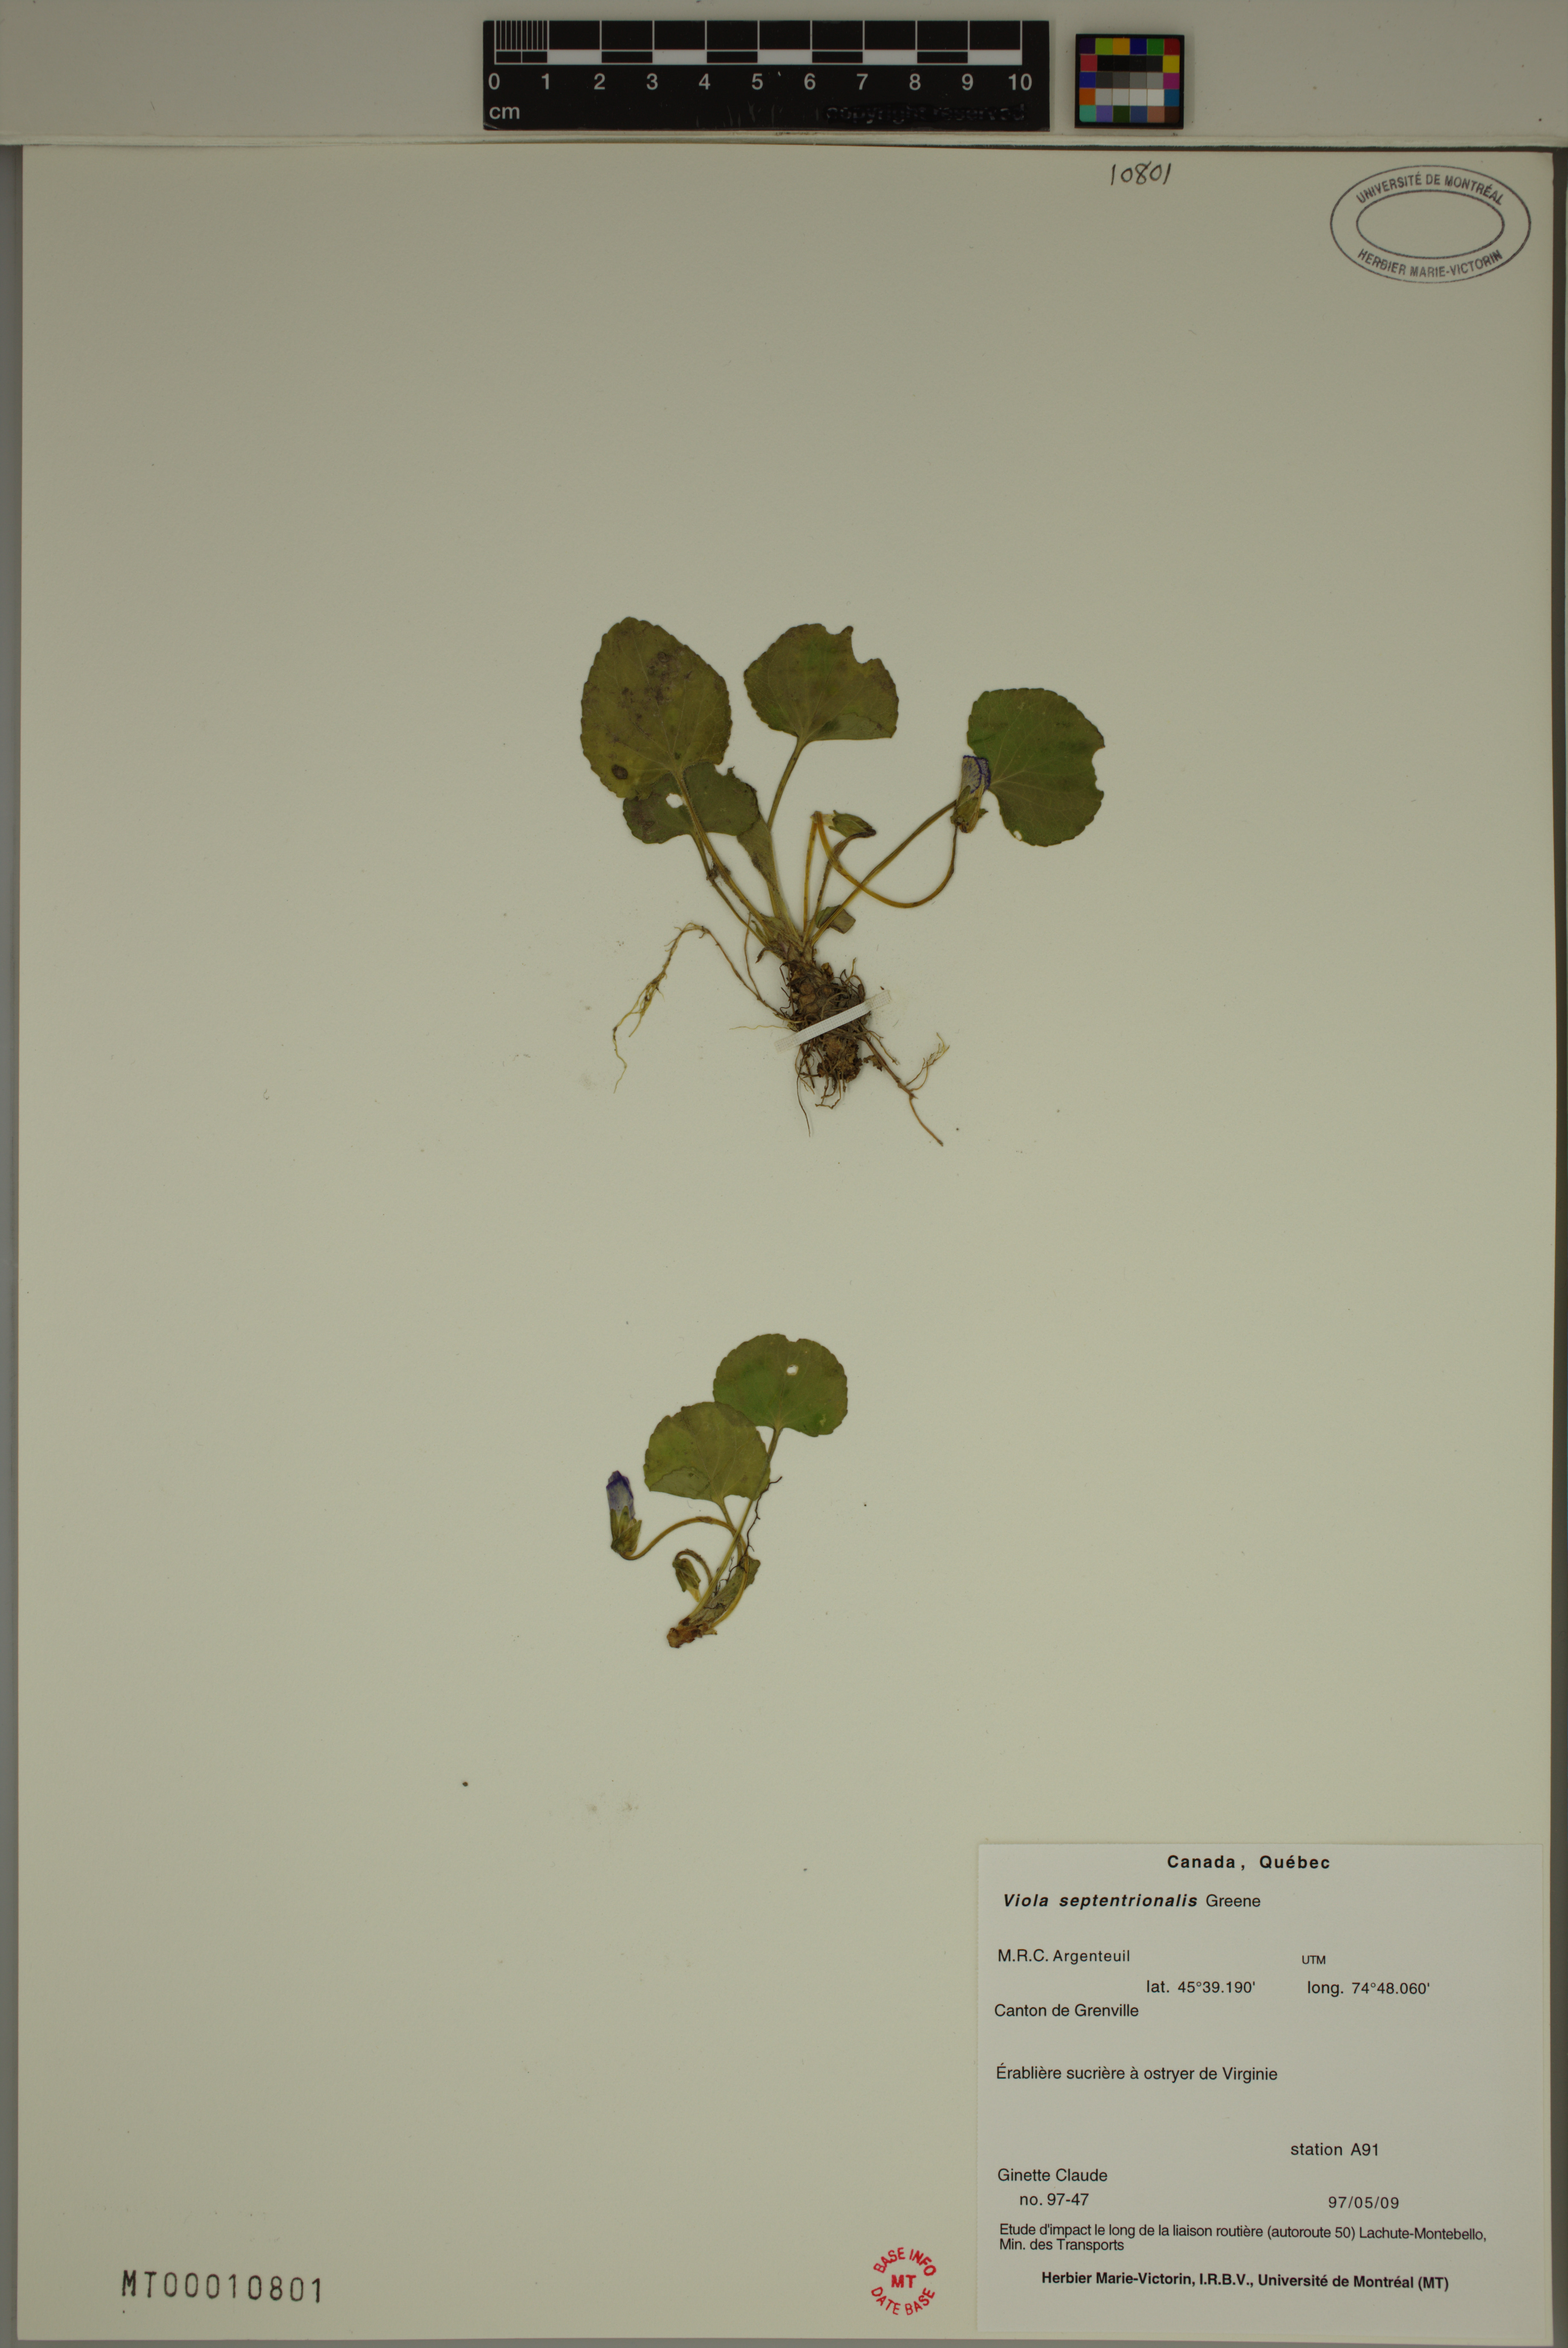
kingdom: Plantae
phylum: Tracheophyta
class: Magnoliopsida
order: Malpighiales
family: Violaceae
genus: Viola
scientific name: Viola sororia
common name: Dooryard violet
